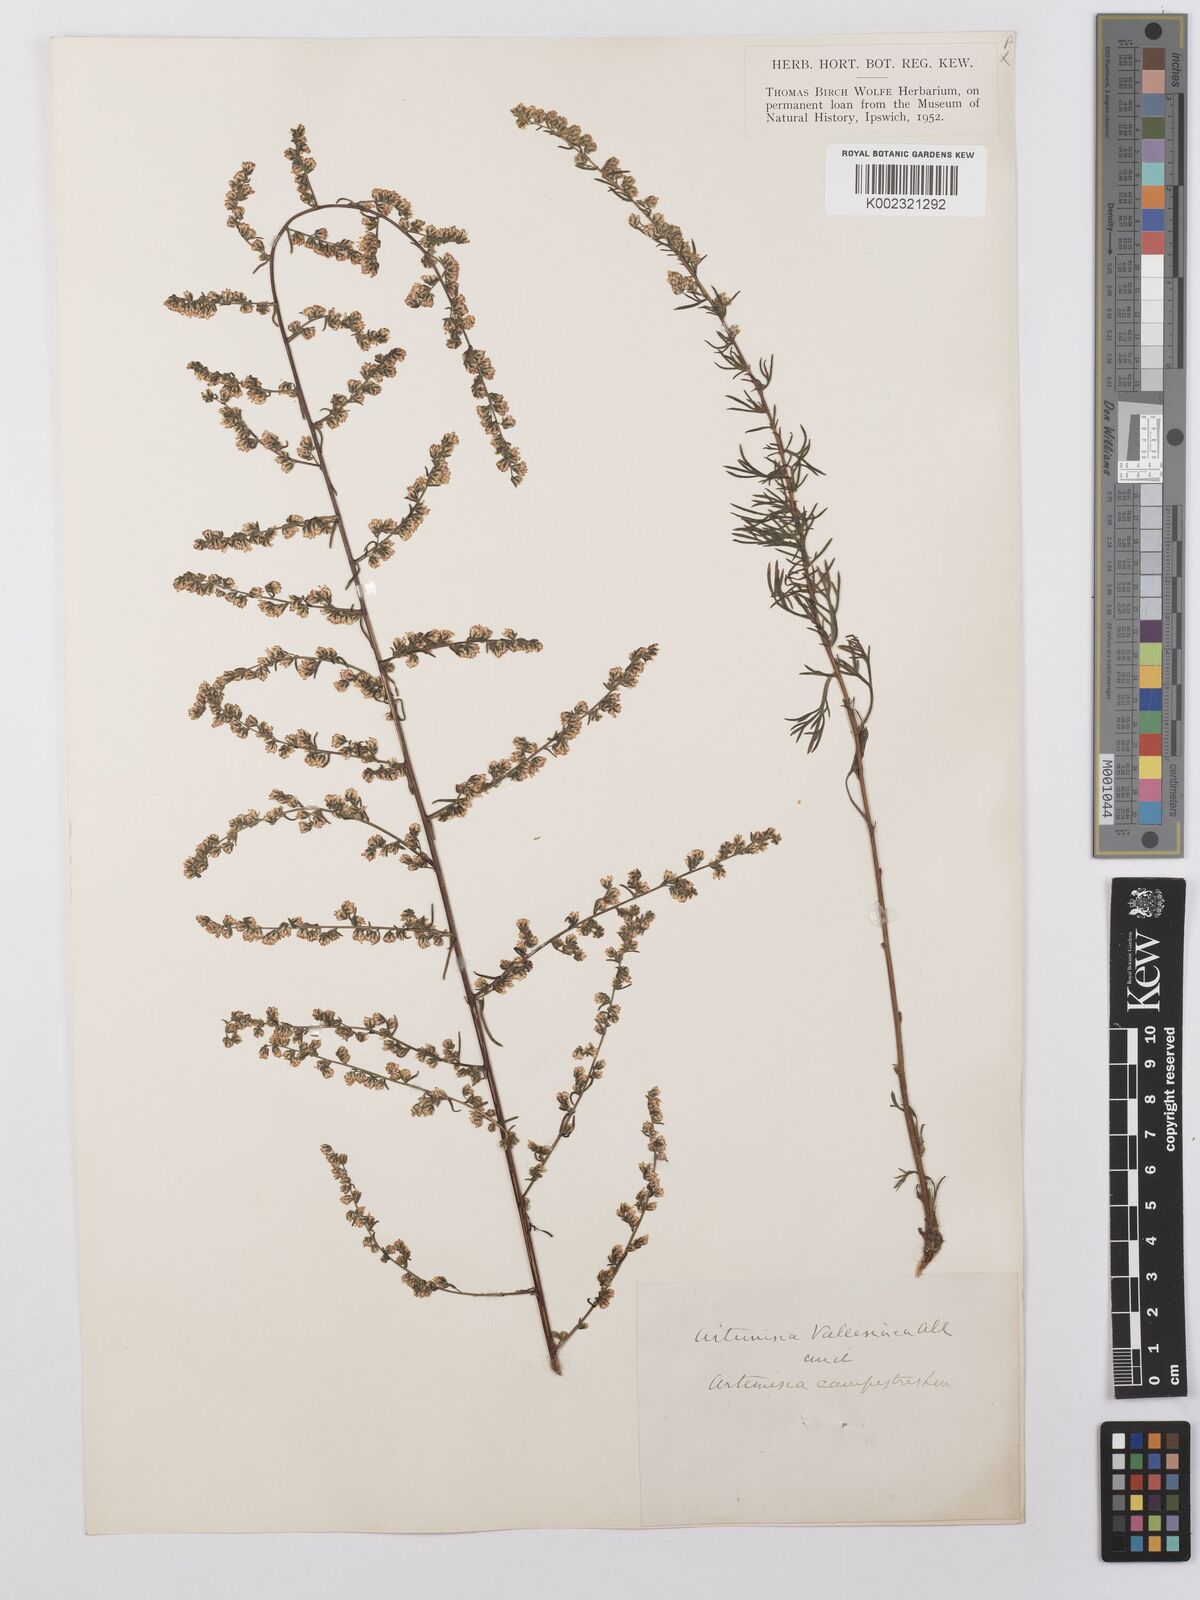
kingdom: Plantae
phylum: Tracheophyta
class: Magnoliopsida
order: Asterales
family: Asteraceae
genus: Artemisia
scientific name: Artemisia vallesiaca
